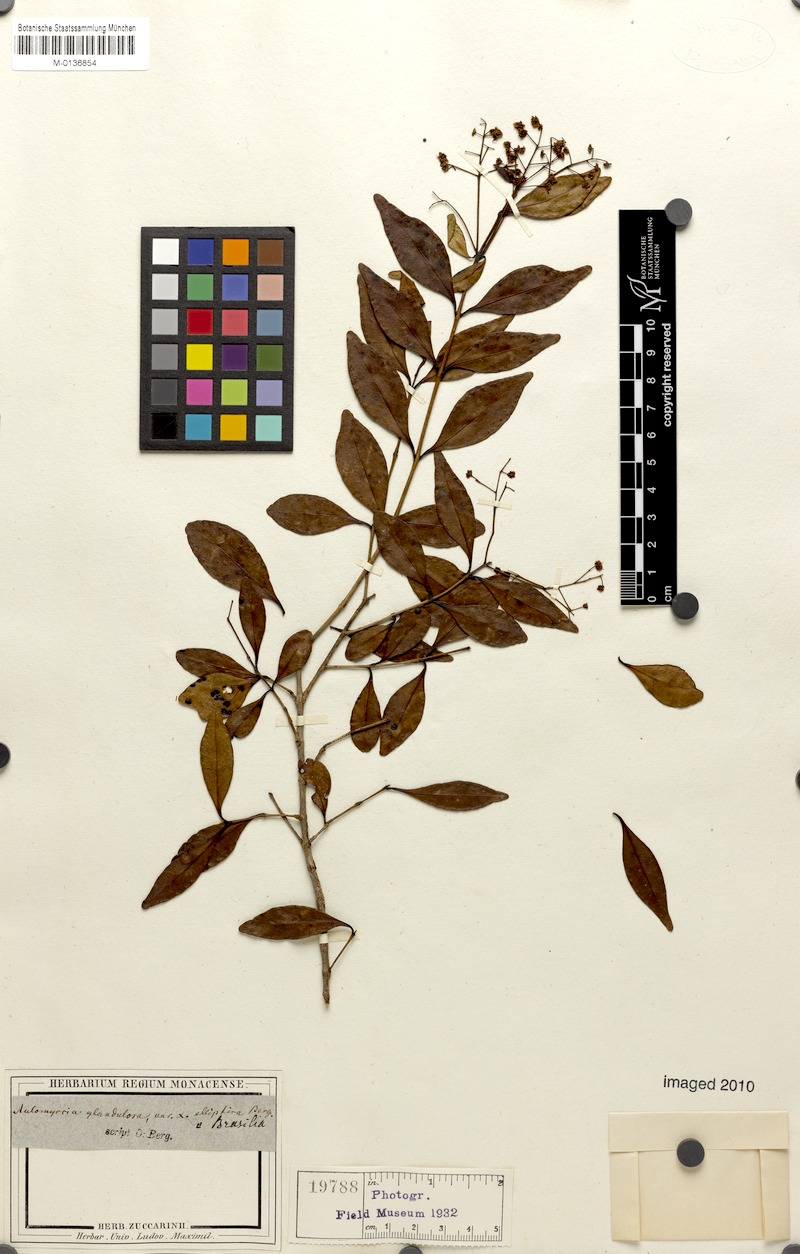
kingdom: Plantae
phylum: Tracheophyta
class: Magnoliopsida
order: Myrtales
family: Myrtaceae
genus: Myrcia
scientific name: Myrcia guianensis
